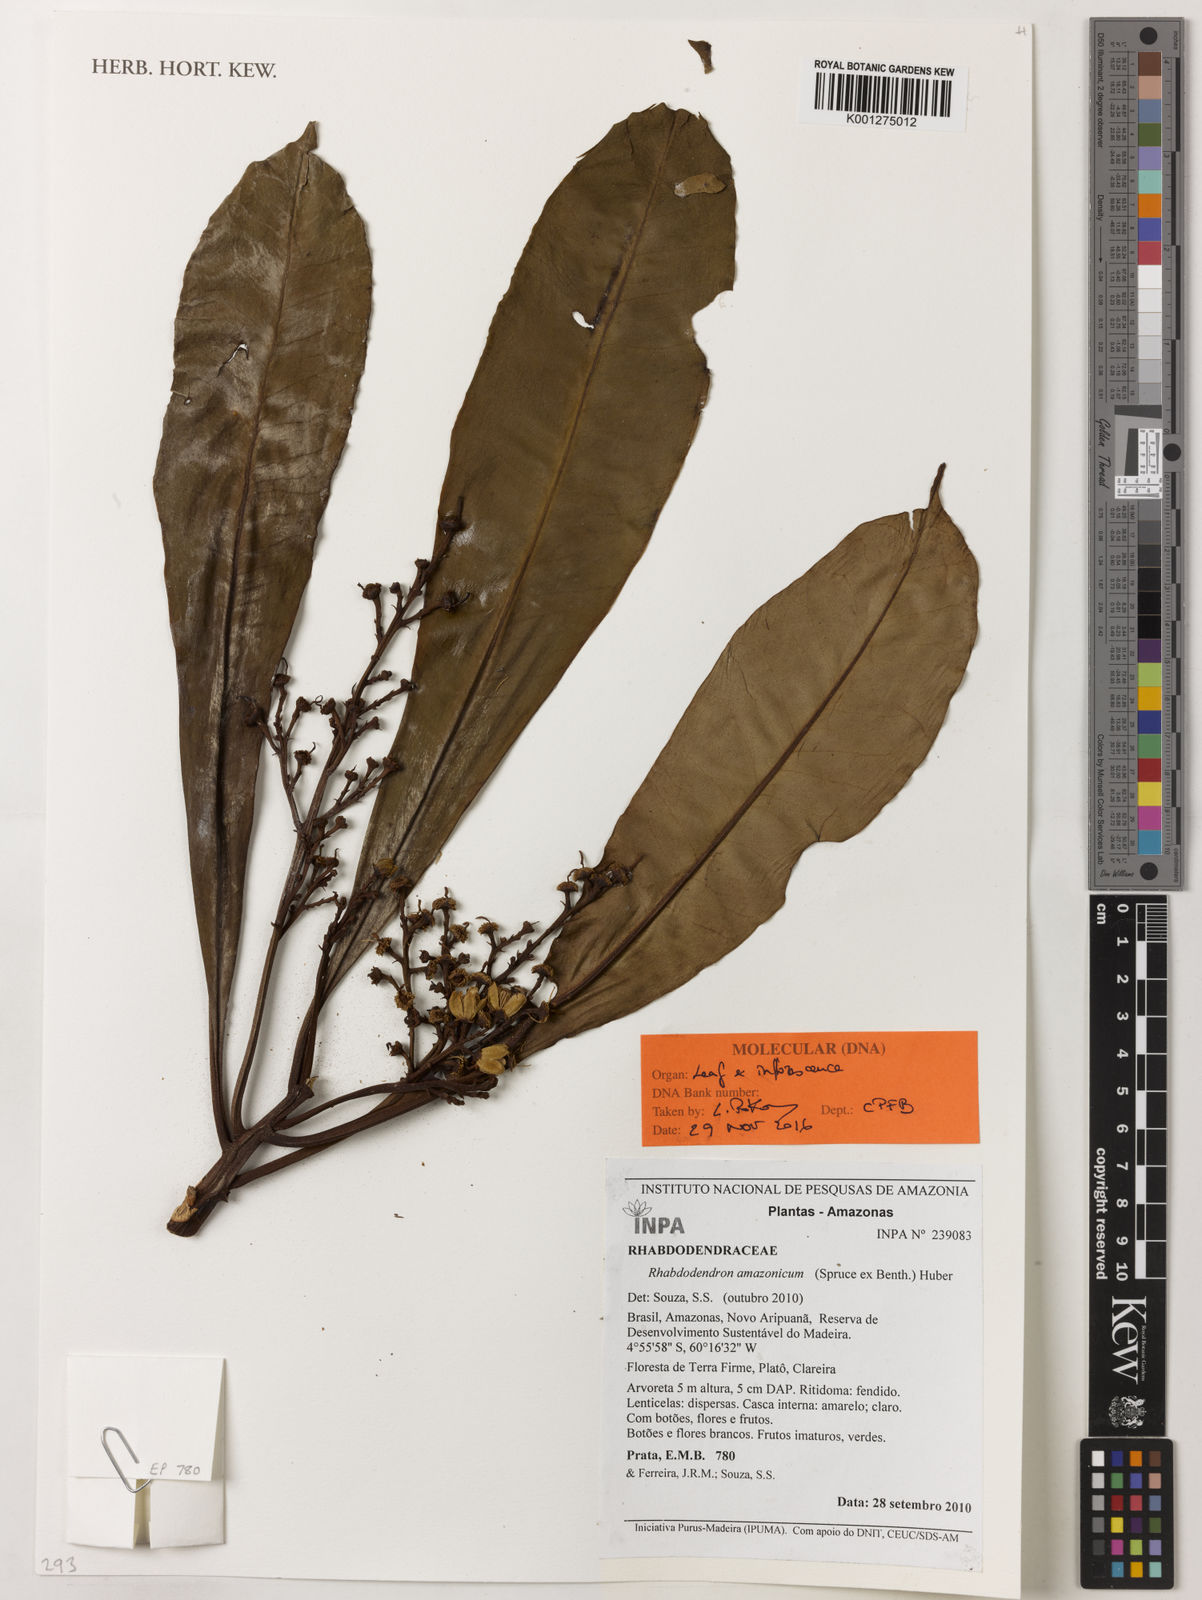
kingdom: Plantae
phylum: Tracheophyta
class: Magnoliopsida
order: Caryophyllales
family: Rhabdodendraceae
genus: Rhabdodendron
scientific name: Rhabdodendron amazonicum
